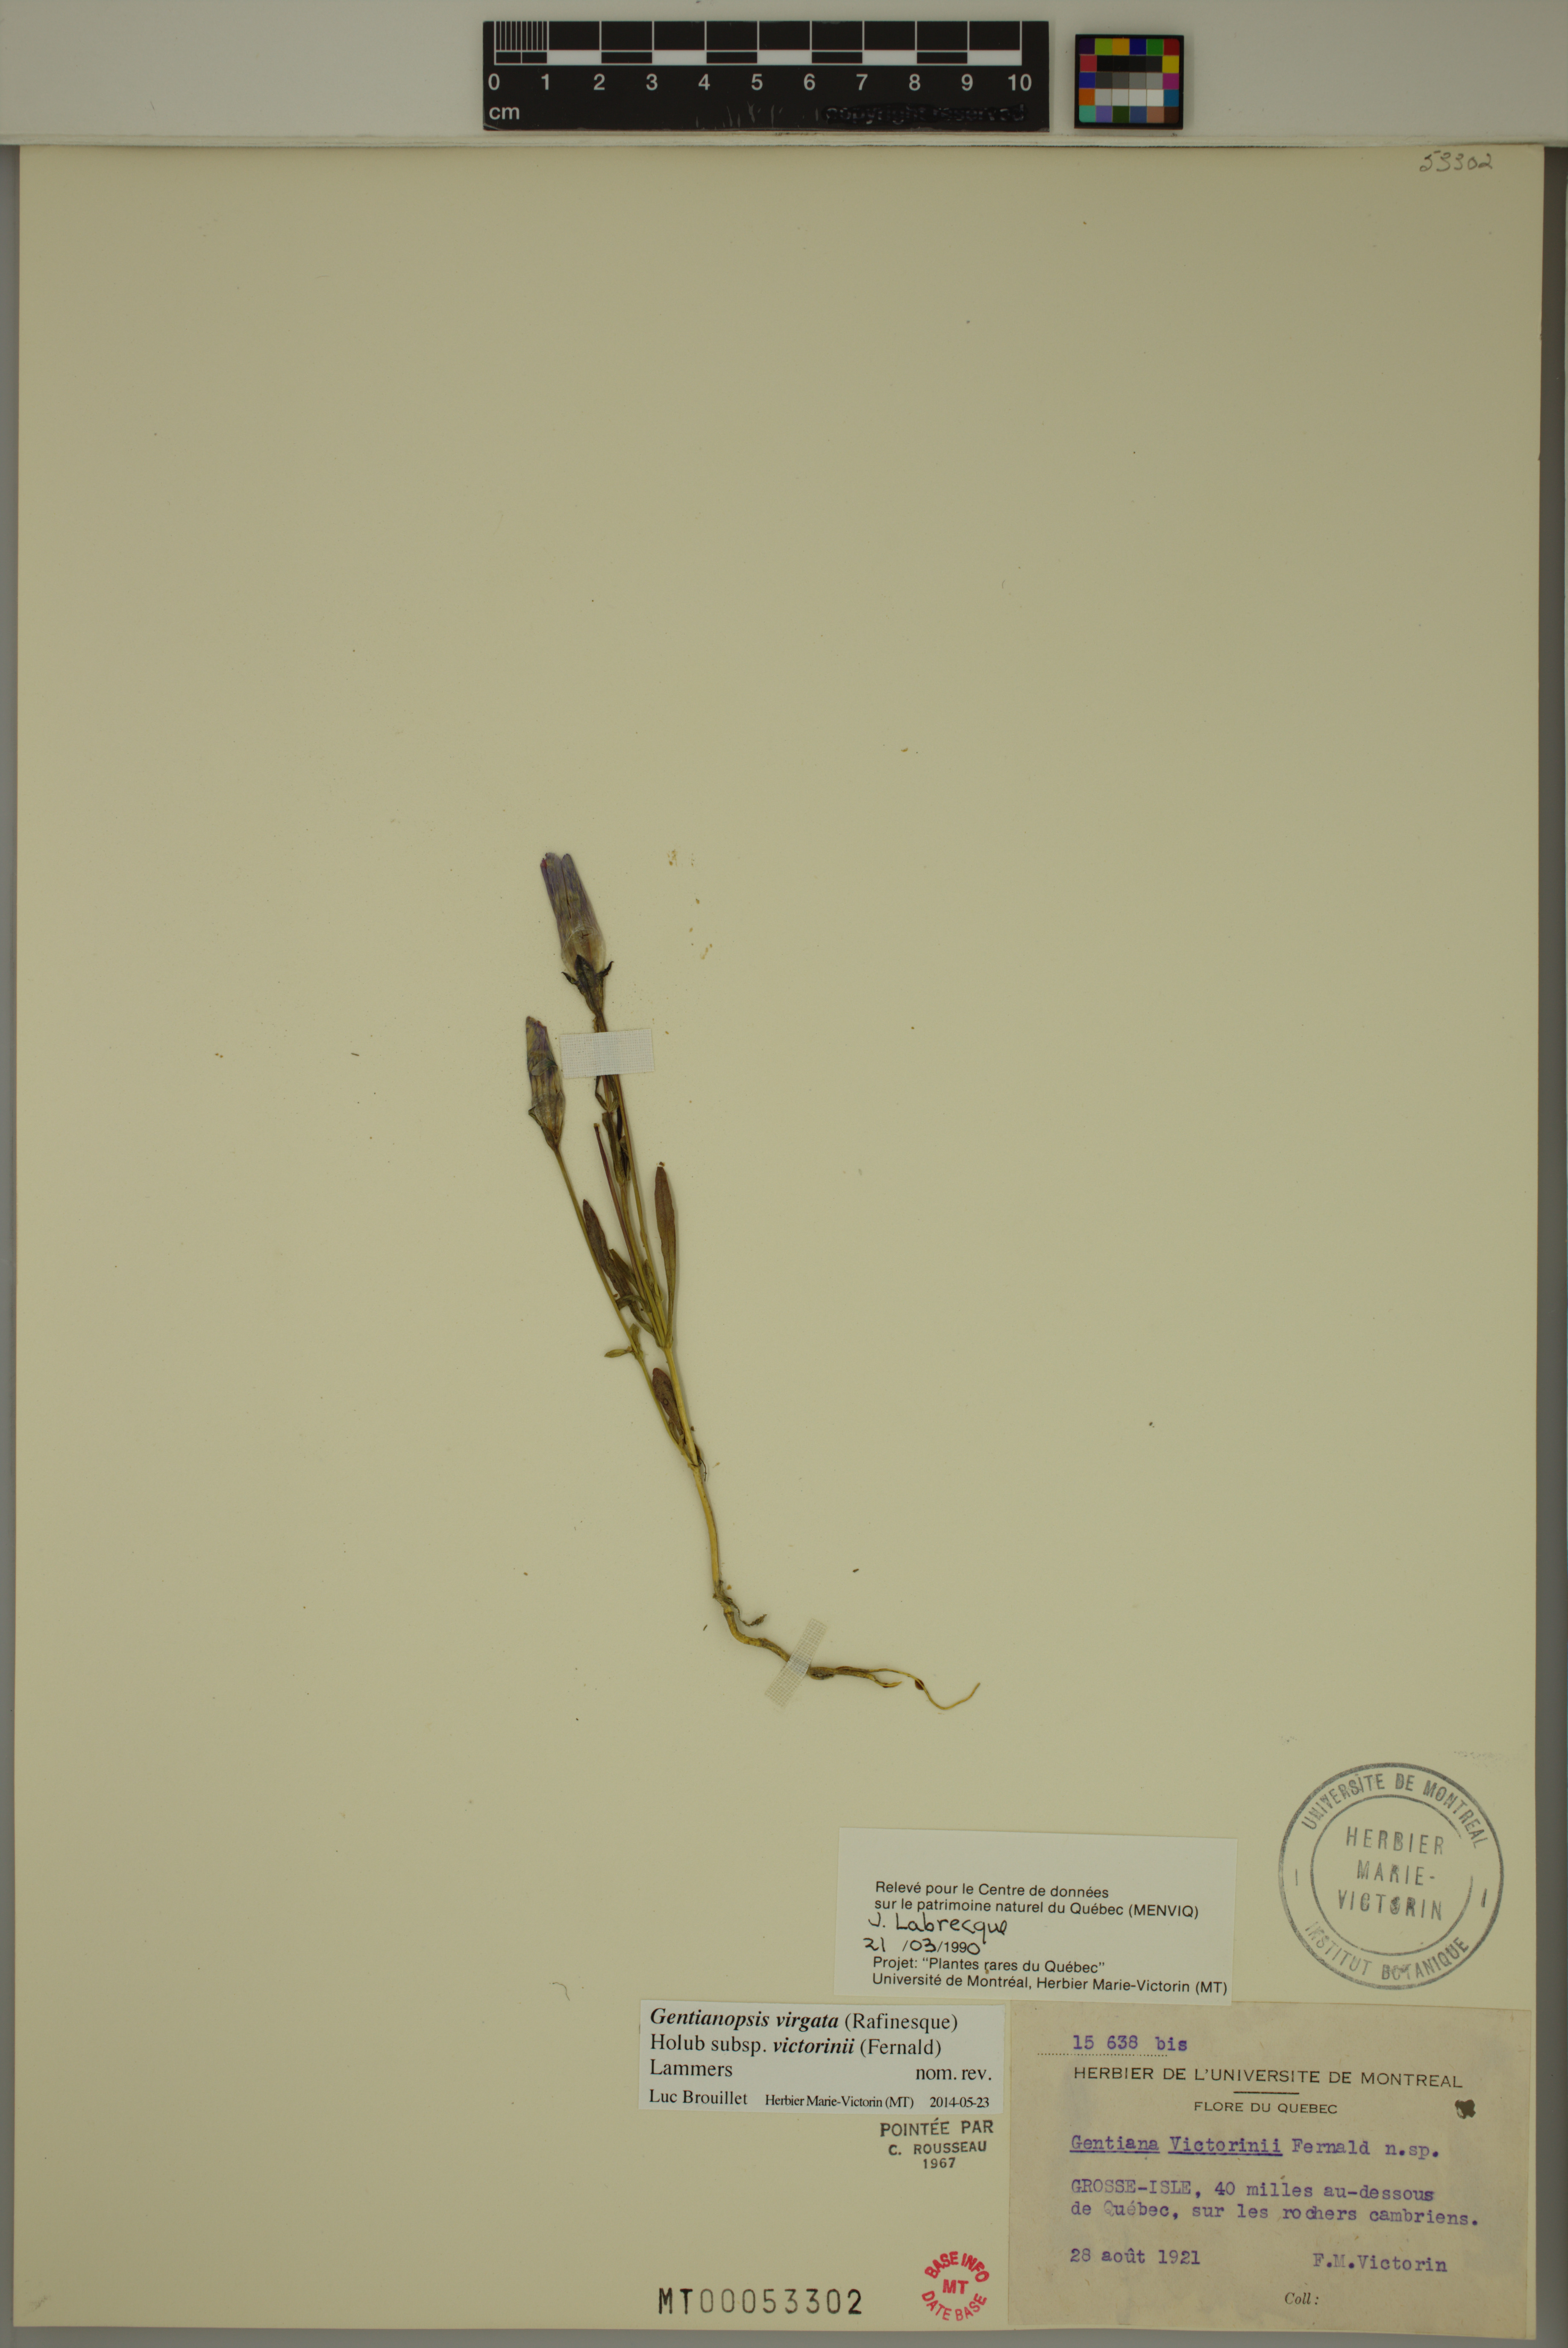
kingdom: Plantae
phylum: Tracheophyta
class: Magnoliopsida
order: Gentianales
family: Gentianaceae
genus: Gentianopsis
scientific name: Gentianopsis victorinii
